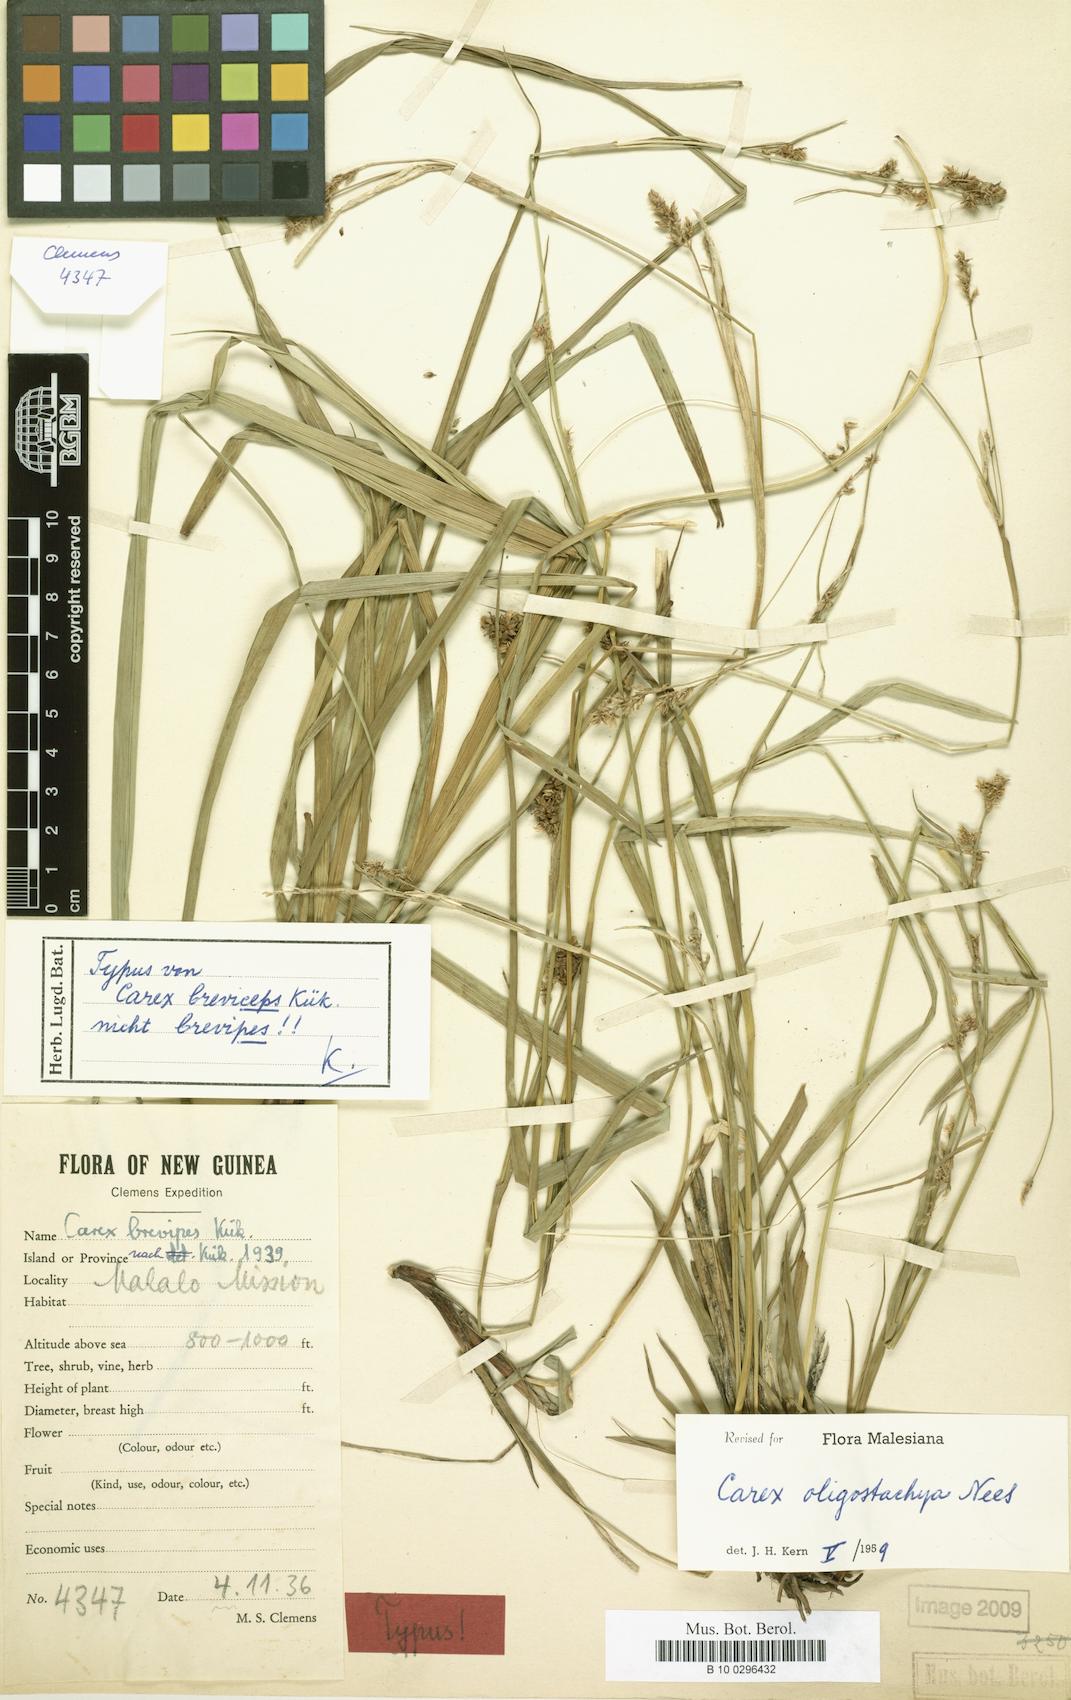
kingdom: Plantae
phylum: Tracheophyta
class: Liliopsida
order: Poales
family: Cyperaceae
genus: Carex
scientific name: Carex oligostachya
